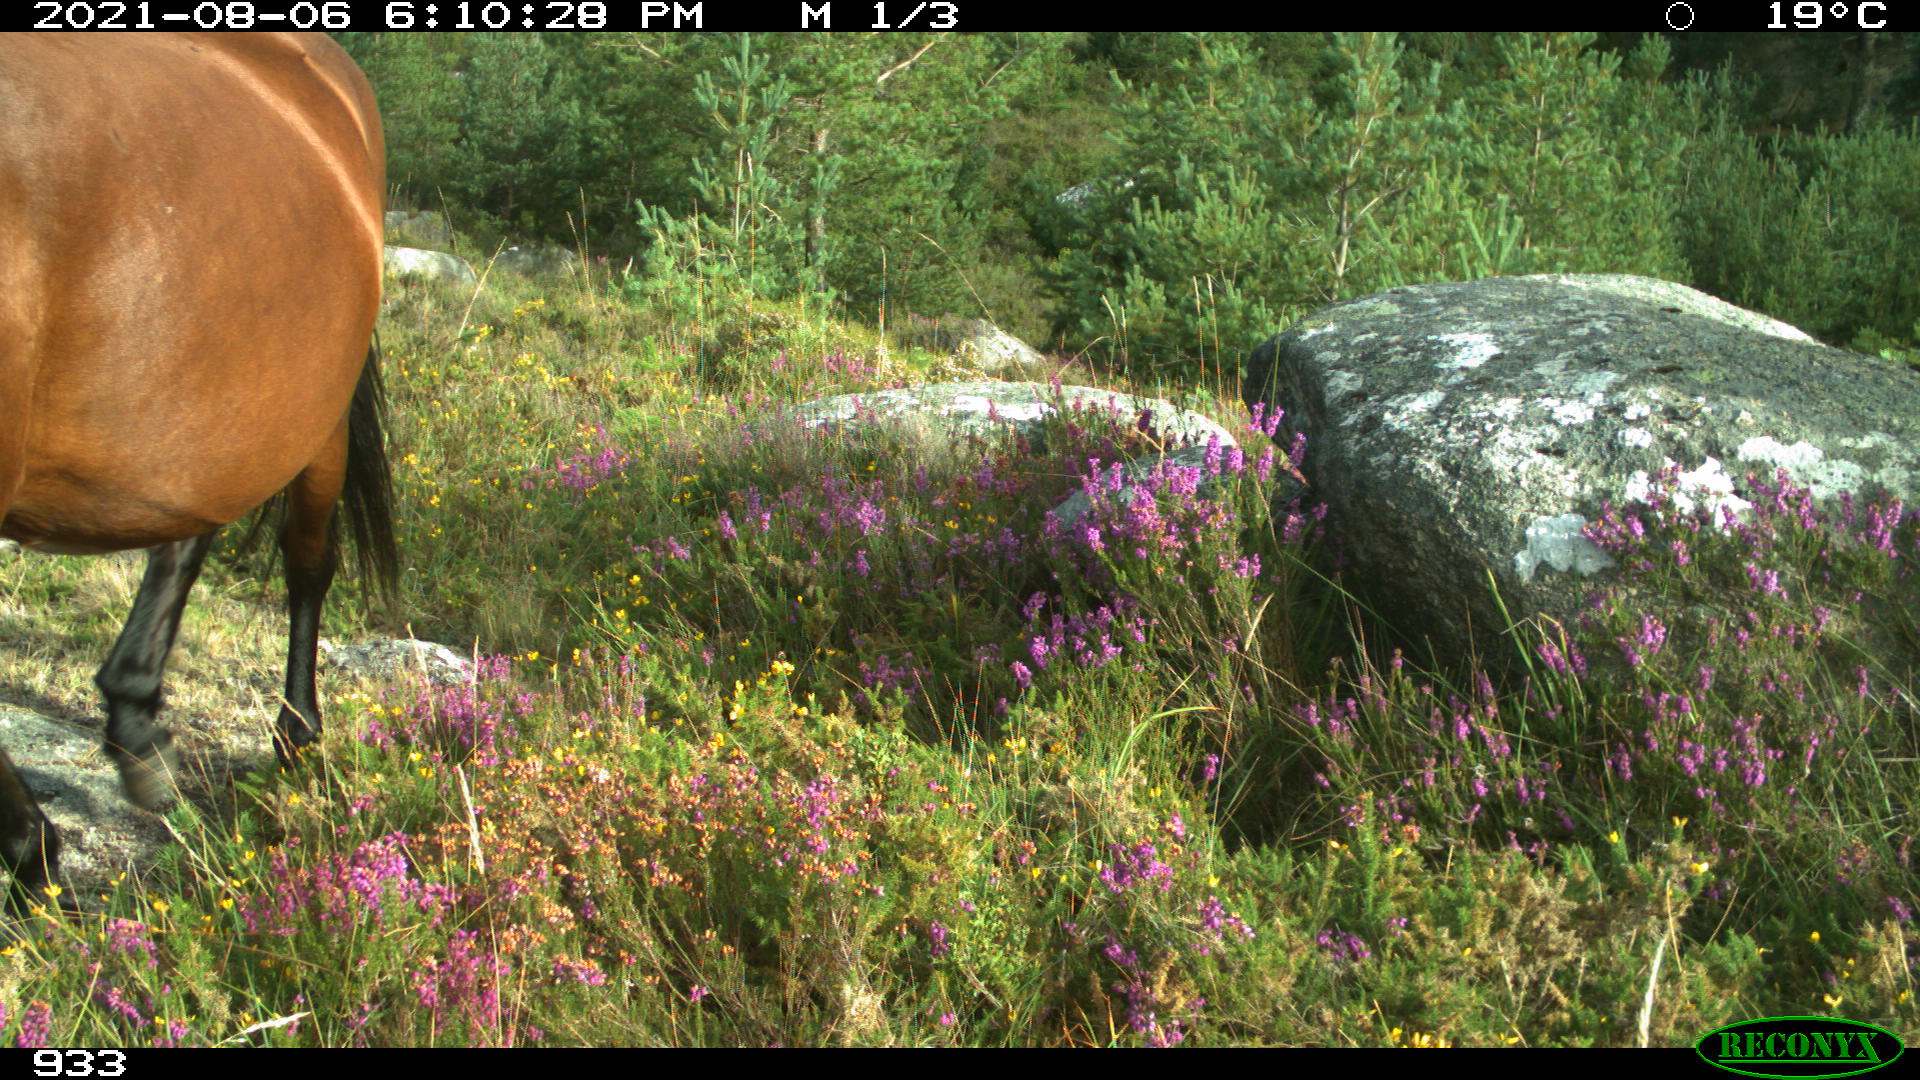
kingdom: Animalia
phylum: Chordata
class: Mammalia
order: Perissodactyla
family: Equidae
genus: Equus
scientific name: Equus caballus
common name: Horse
